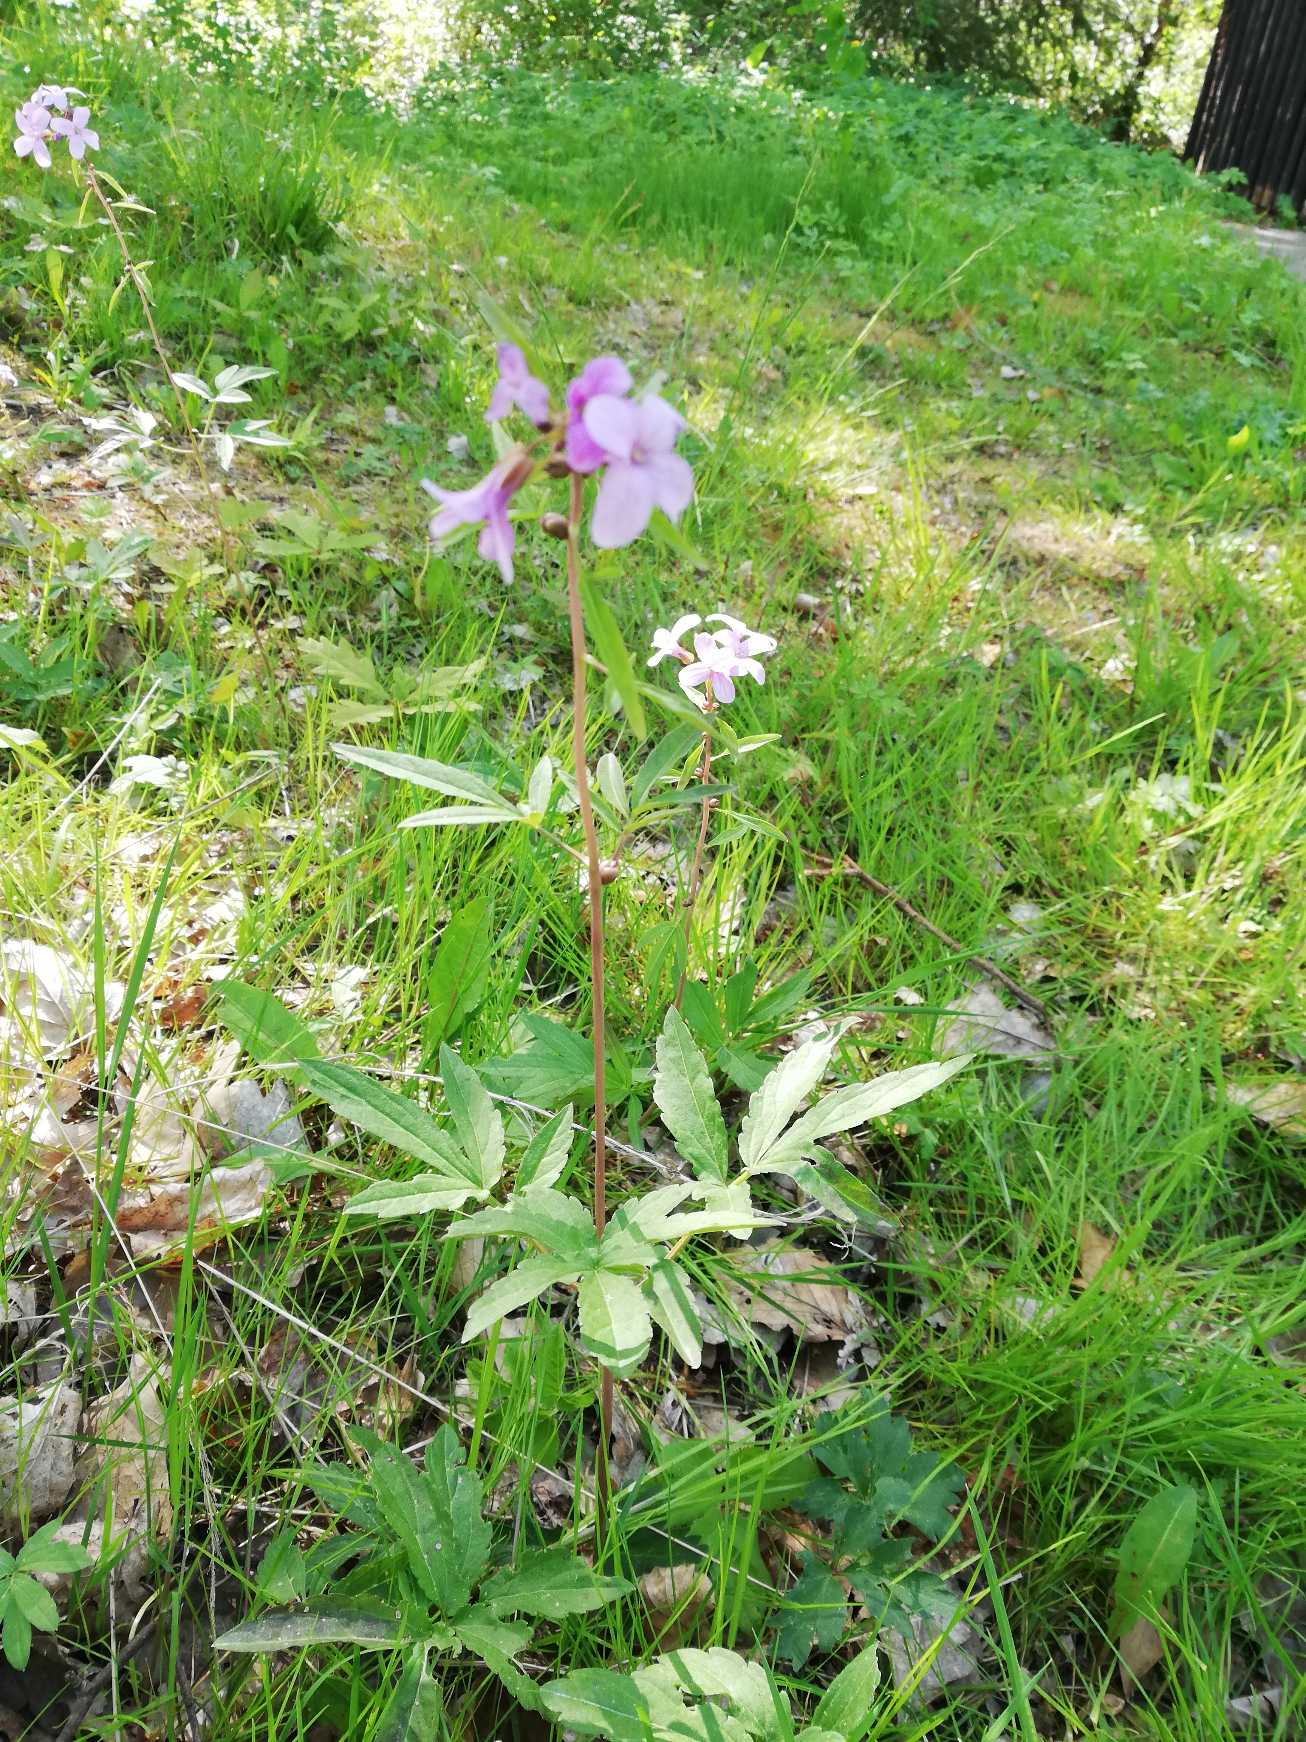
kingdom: Plantae
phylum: Tracheophyta
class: Magnoliopsida
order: Brassicales
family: Brassicaceae
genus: Cardamine
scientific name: Cardamine bulbifera
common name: Tandrod
